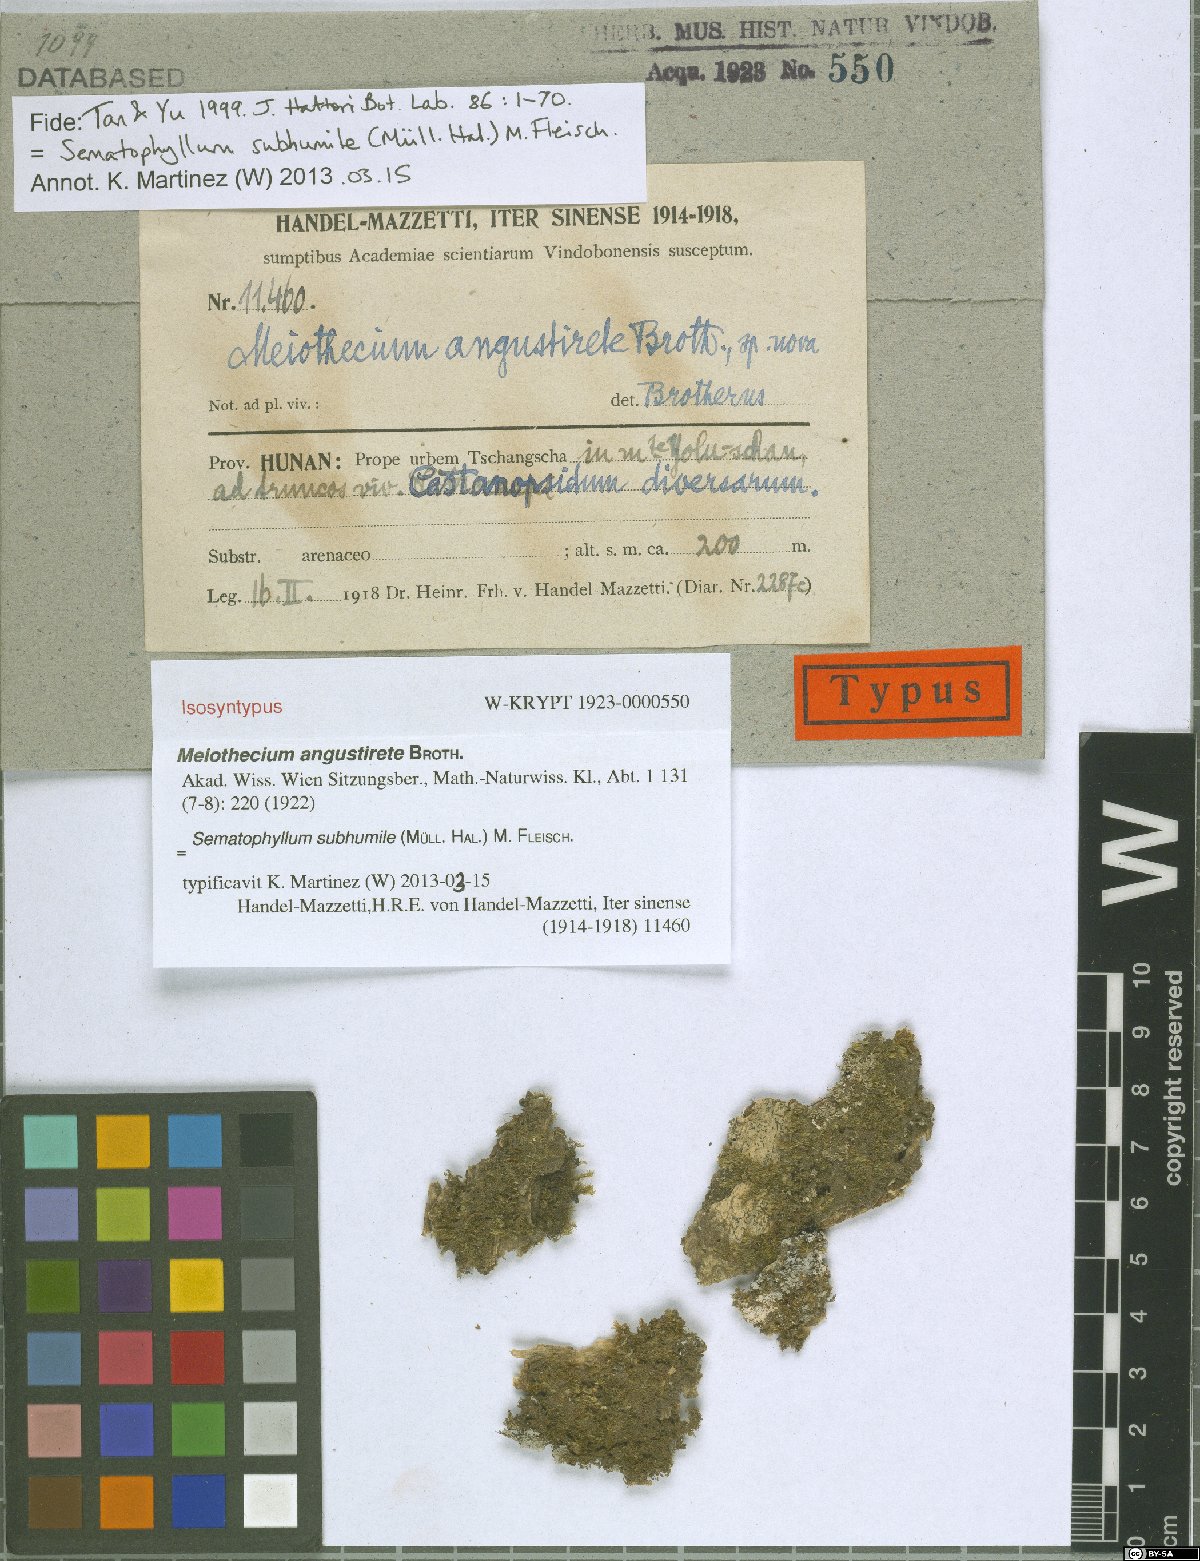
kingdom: Plantae
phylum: Bryophyta
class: Bryopsida
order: Hypnales
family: Sematophyllaceae
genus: Sematophyllum
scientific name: Sematophyllum subhumile
